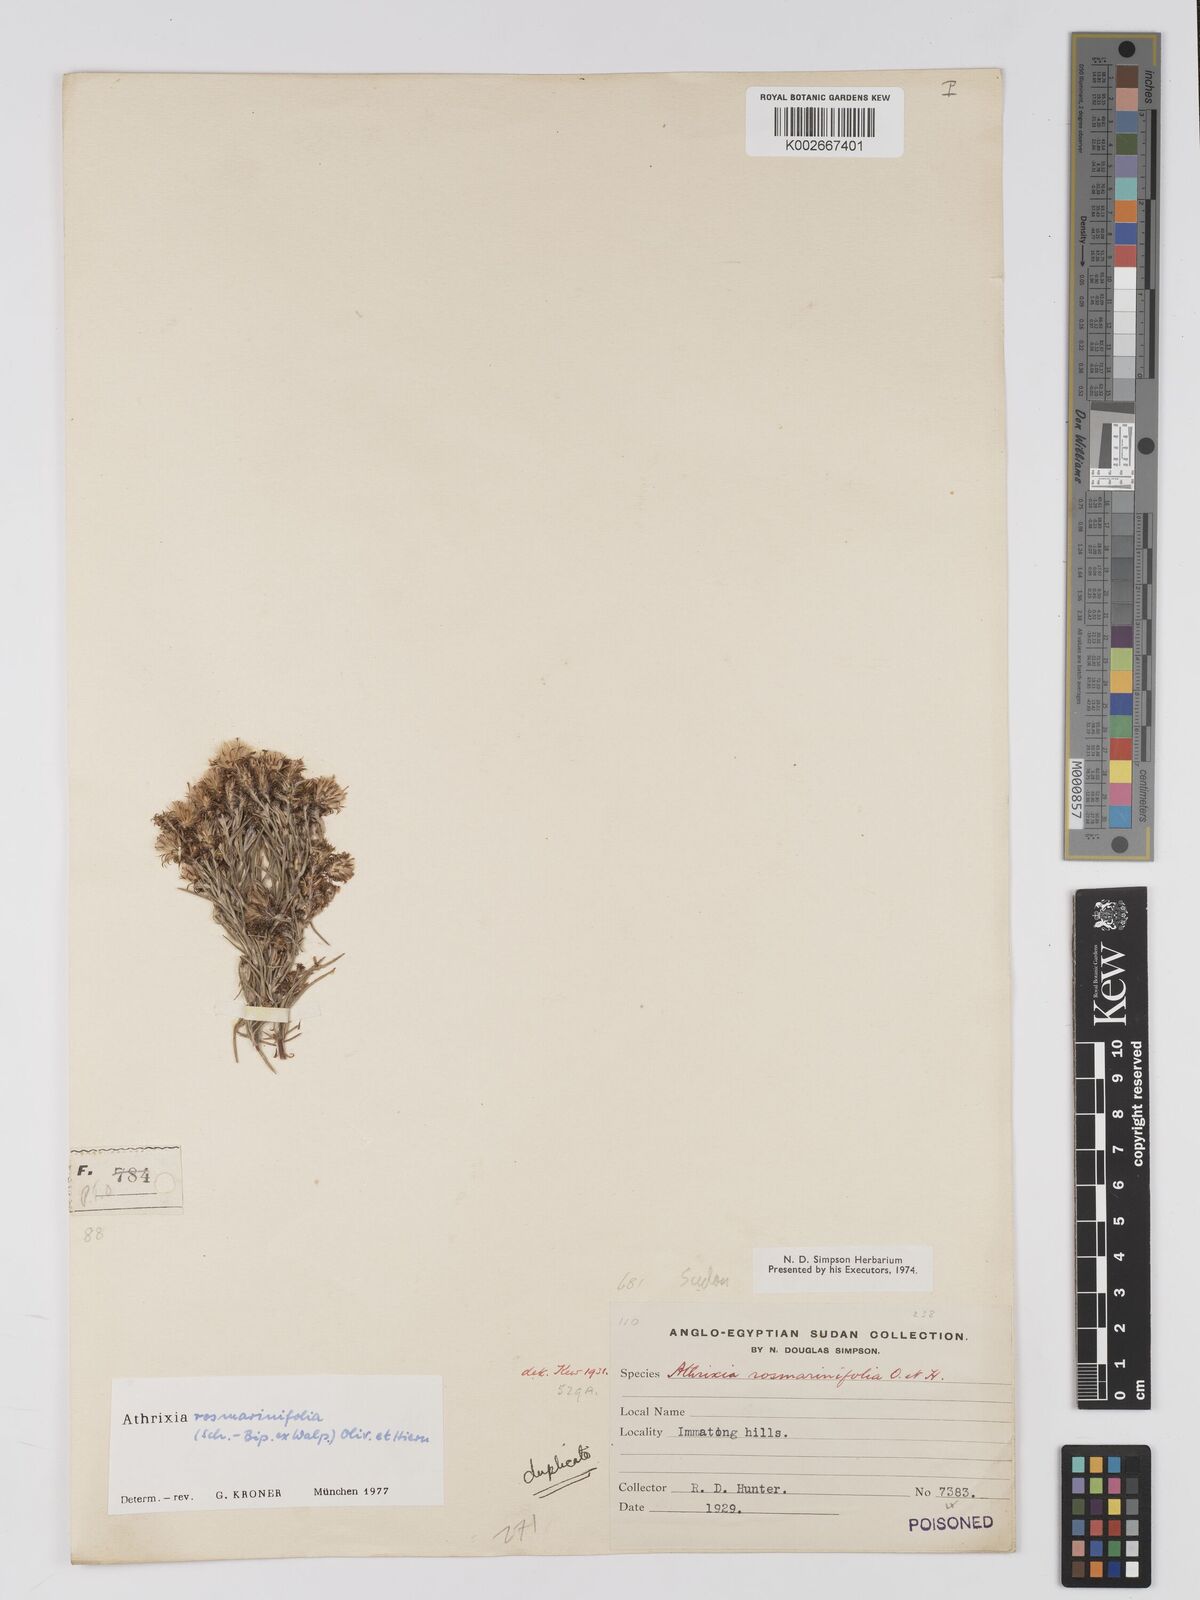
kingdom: Plantae
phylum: Tracheophyta
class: Magnoliopsida
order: Asterales
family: Asteraceae
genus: Athrixia
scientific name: Athrixia rosmarinifolia
